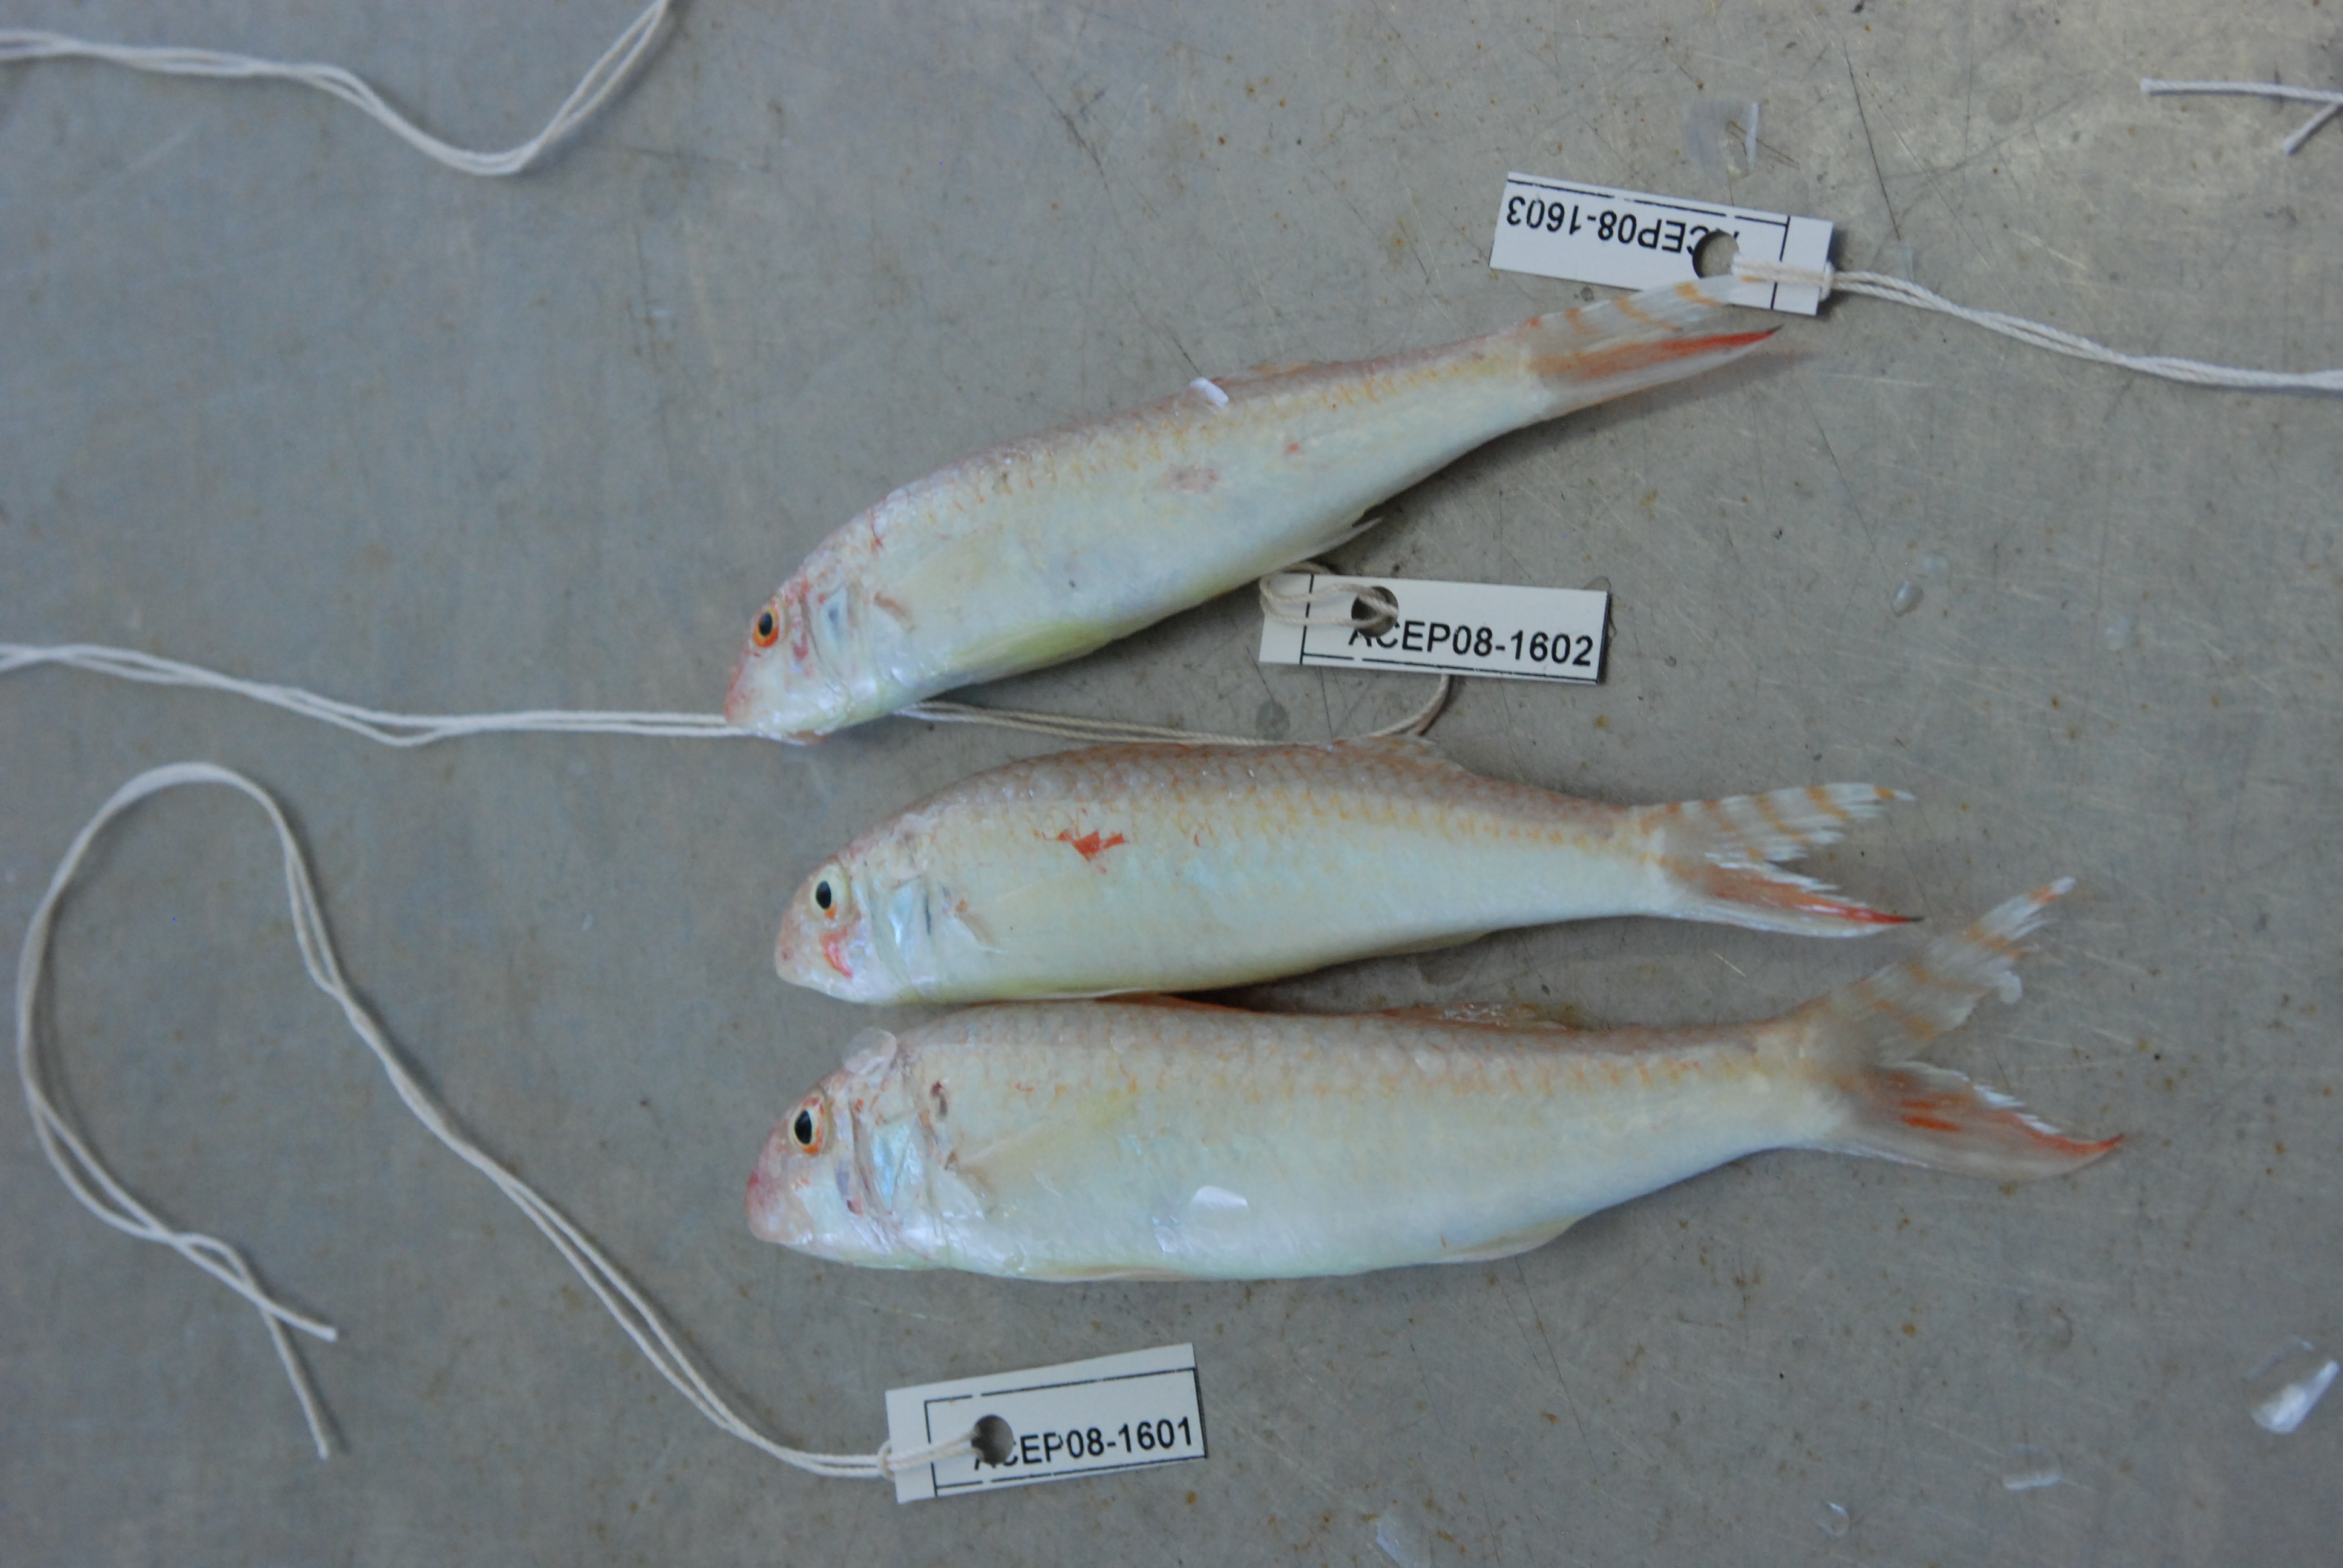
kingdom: Animalia
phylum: Chordata
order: Perciformes
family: Mullidae
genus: Upeneus
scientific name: Upeneus seychellensis
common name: Tailstripe goatfish
